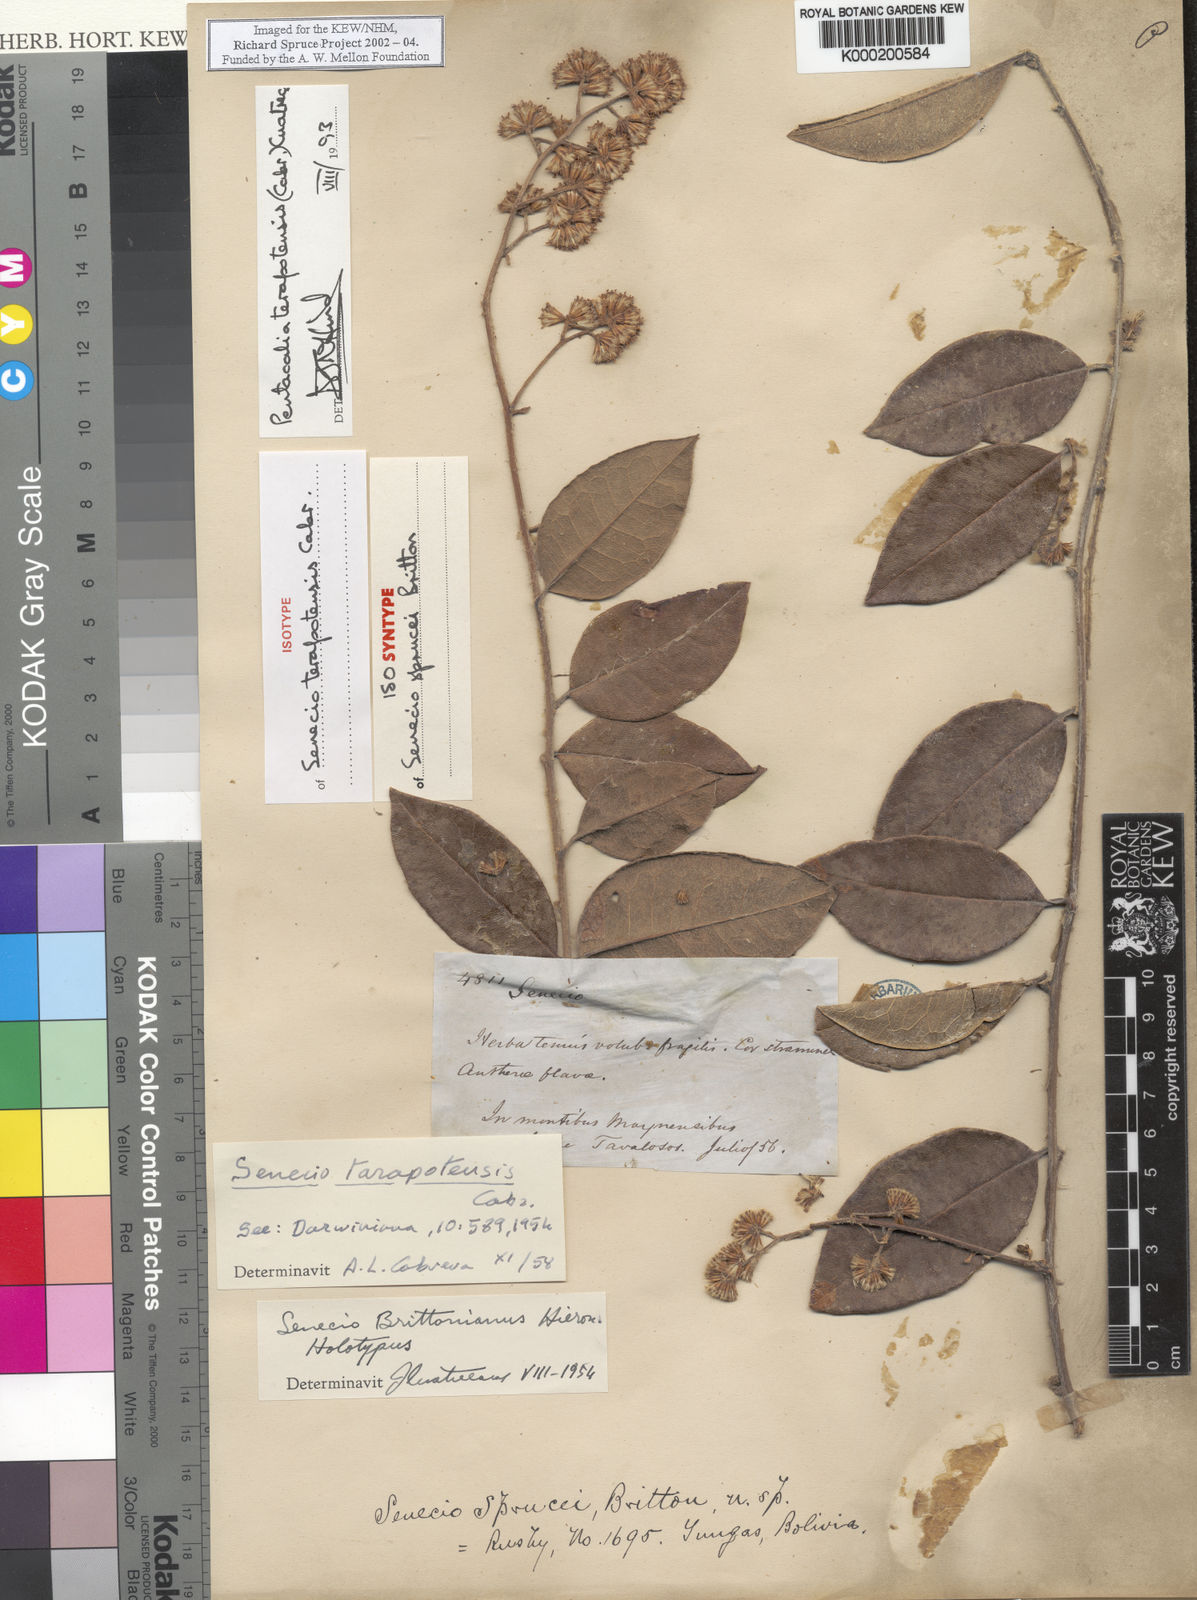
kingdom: Plantae
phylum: Tracheophyta
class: Magnoliopsida
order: Asterales
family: Asteraceae
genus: Pentacalia
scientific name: Pentacalia tarapotensis
